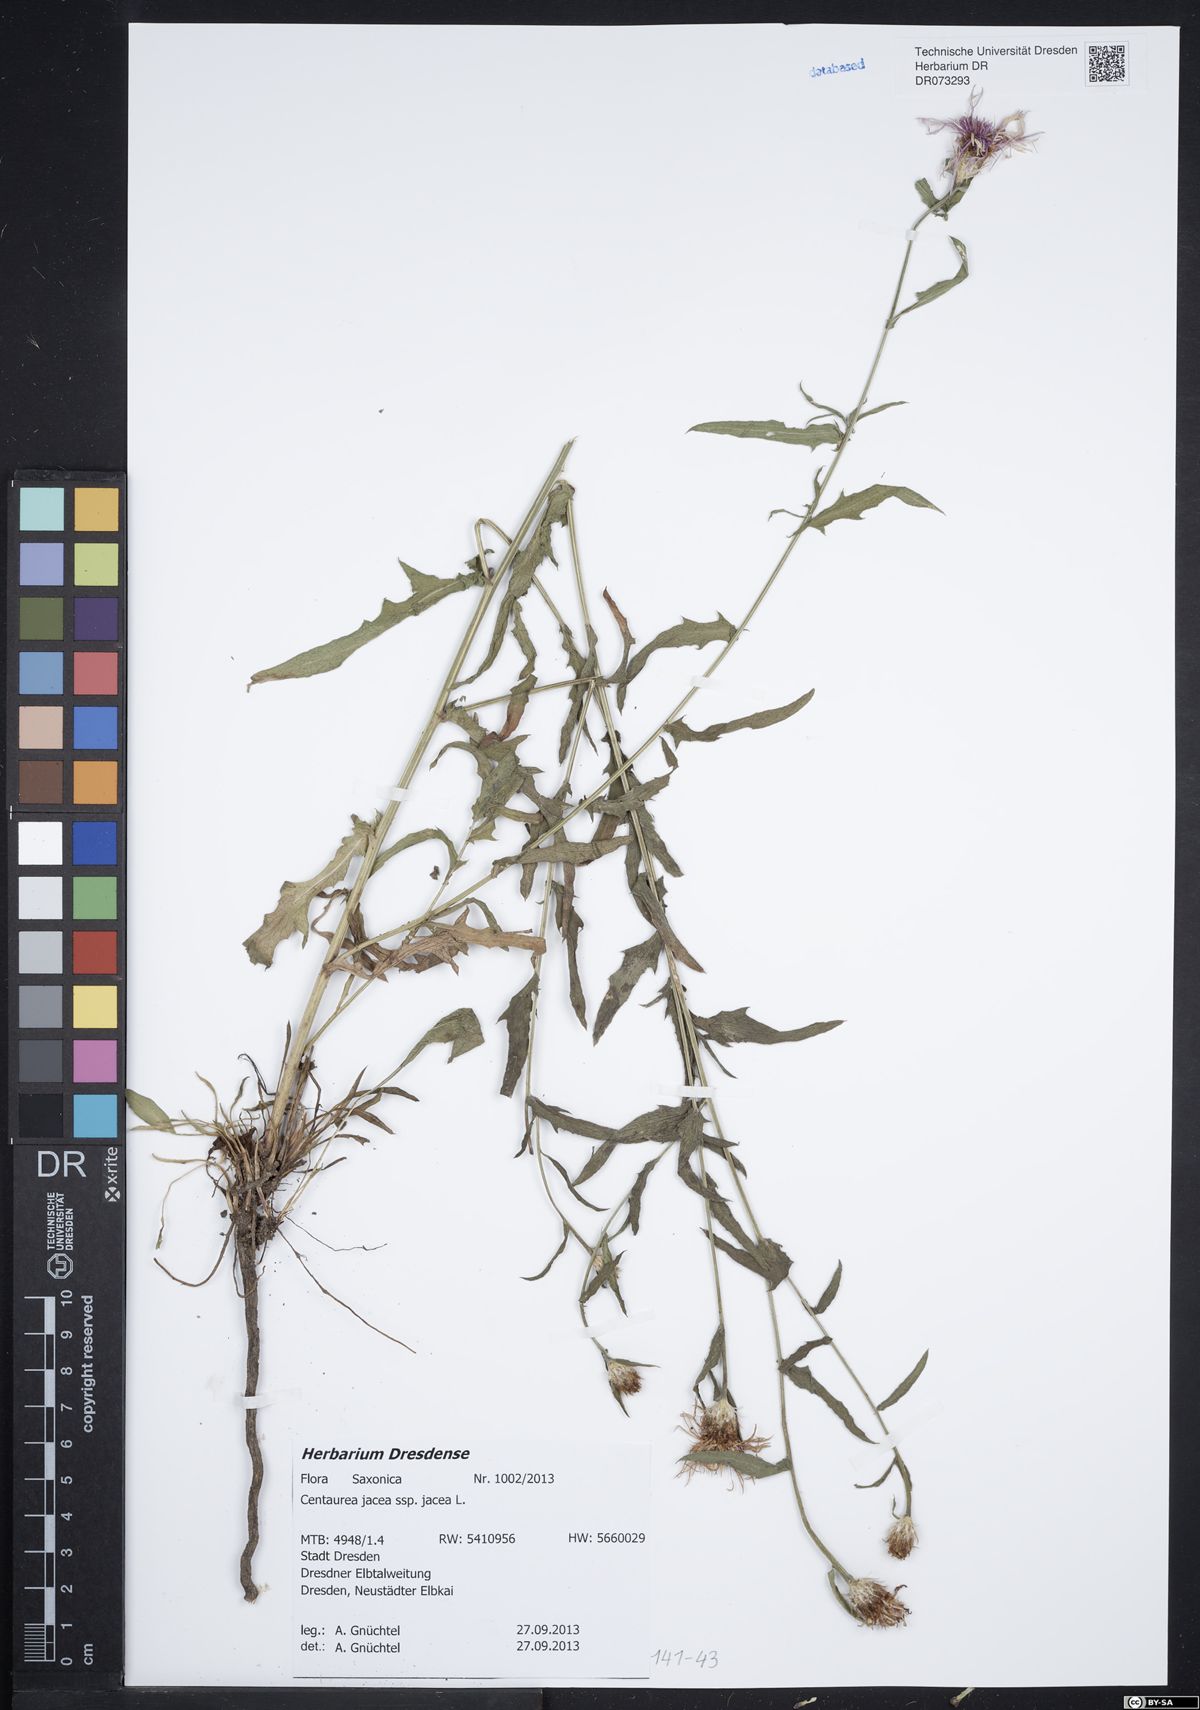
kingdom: Plantae
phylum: Tracheophyta
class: Magnoliopsida
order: Asterales
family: Asteraceae
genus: Centaurea
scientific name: Centaurea jacea
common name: Brown knapweed
